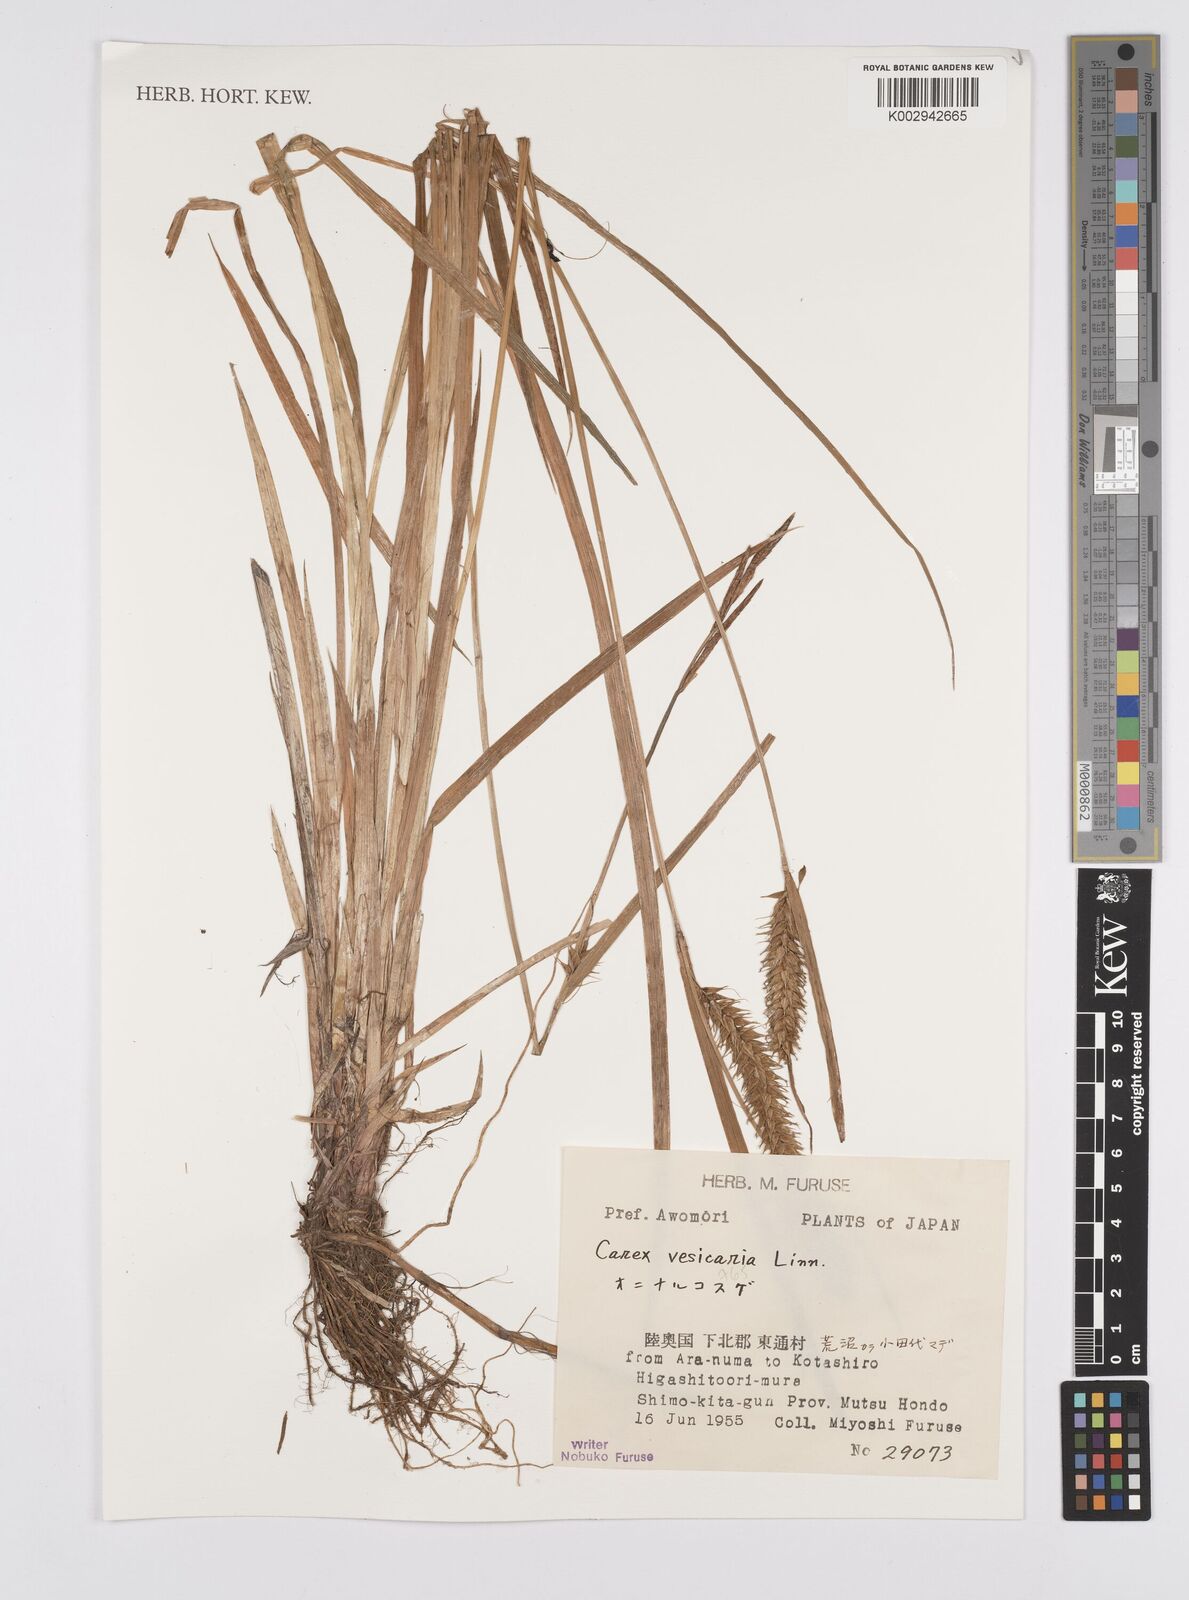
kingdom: Plantae
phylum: Tracheophyta
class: Liliopsida
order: Poales
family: Cyperaceae
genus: Carex
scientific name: Carex vesicaria
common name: Bladder-sedge
